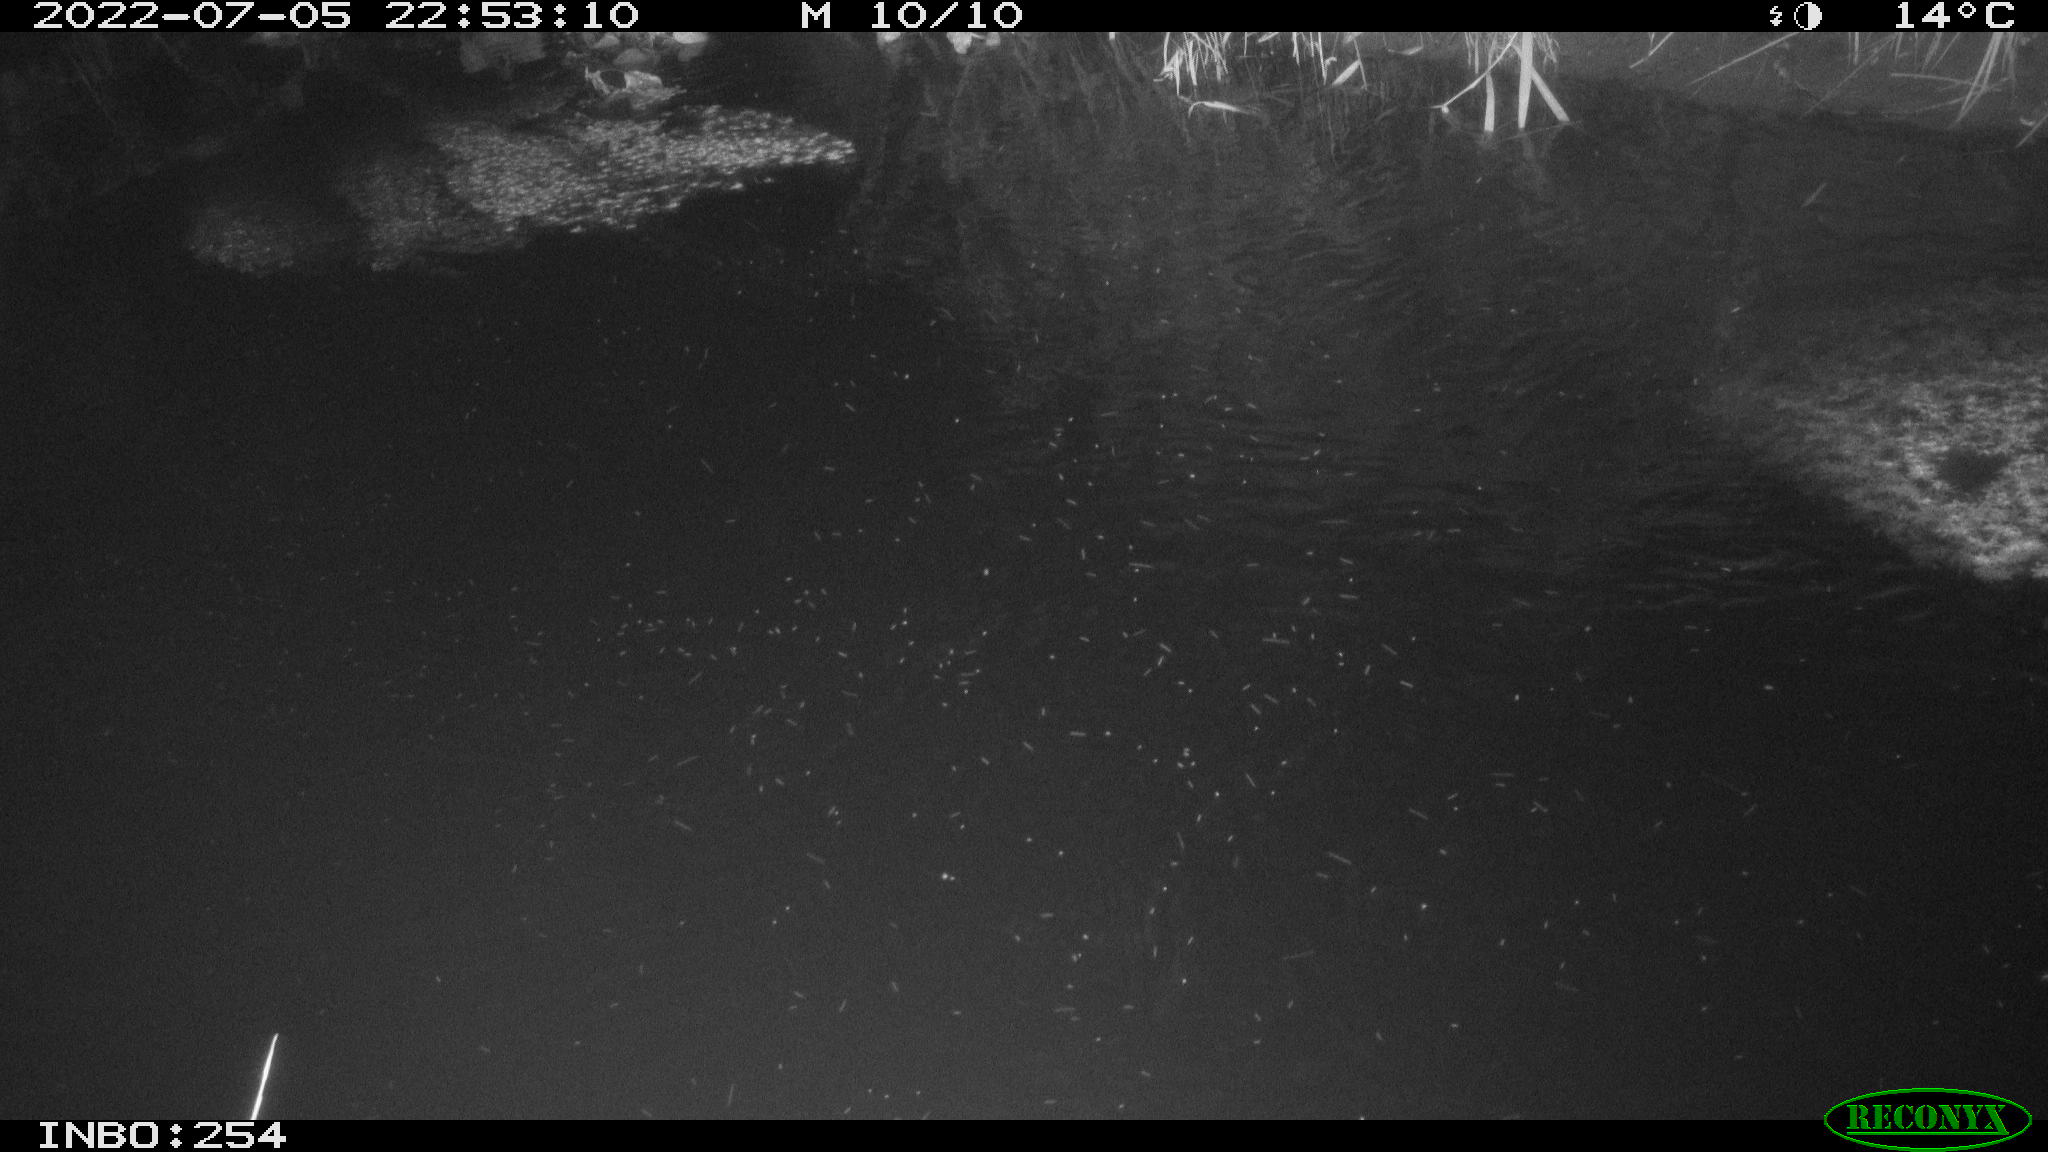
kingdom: Animalia
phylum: Chordata
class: Aves
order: Anseriformes
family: Anatidae
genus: Anas
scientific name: Anas platyrhynchos
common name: Mallard
